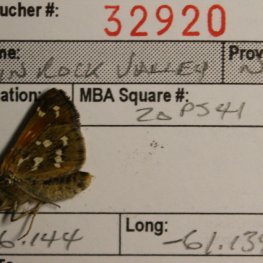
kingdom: Animalia
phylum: Arthropoda
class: Insecta
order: Lepidoptera
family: Hesperiidae
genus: Hesperia
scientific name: Hesperia comma
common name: Common Branded Skipper
